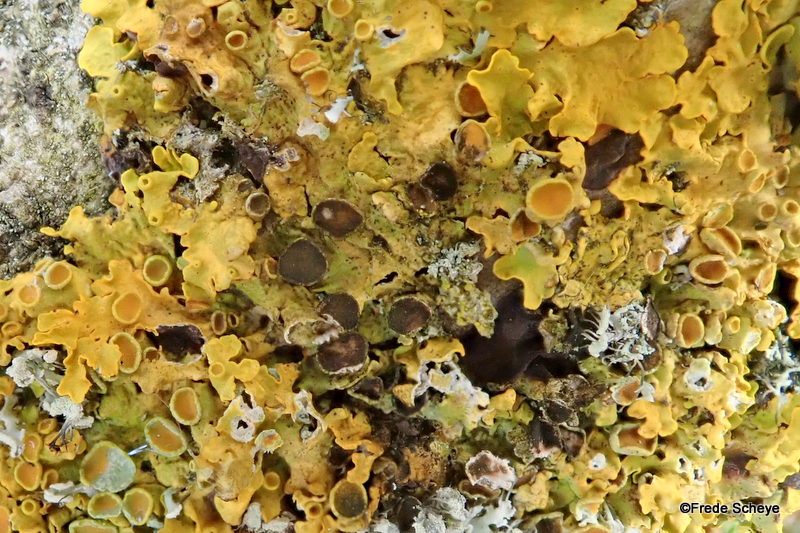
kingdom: Fungi
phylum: Ascomycota
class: Dothideomycetes
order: Mycosphaerellales
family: Teratosphaeriaceae
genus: Xanthoriicola
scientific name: Xanthoriicola physciae
